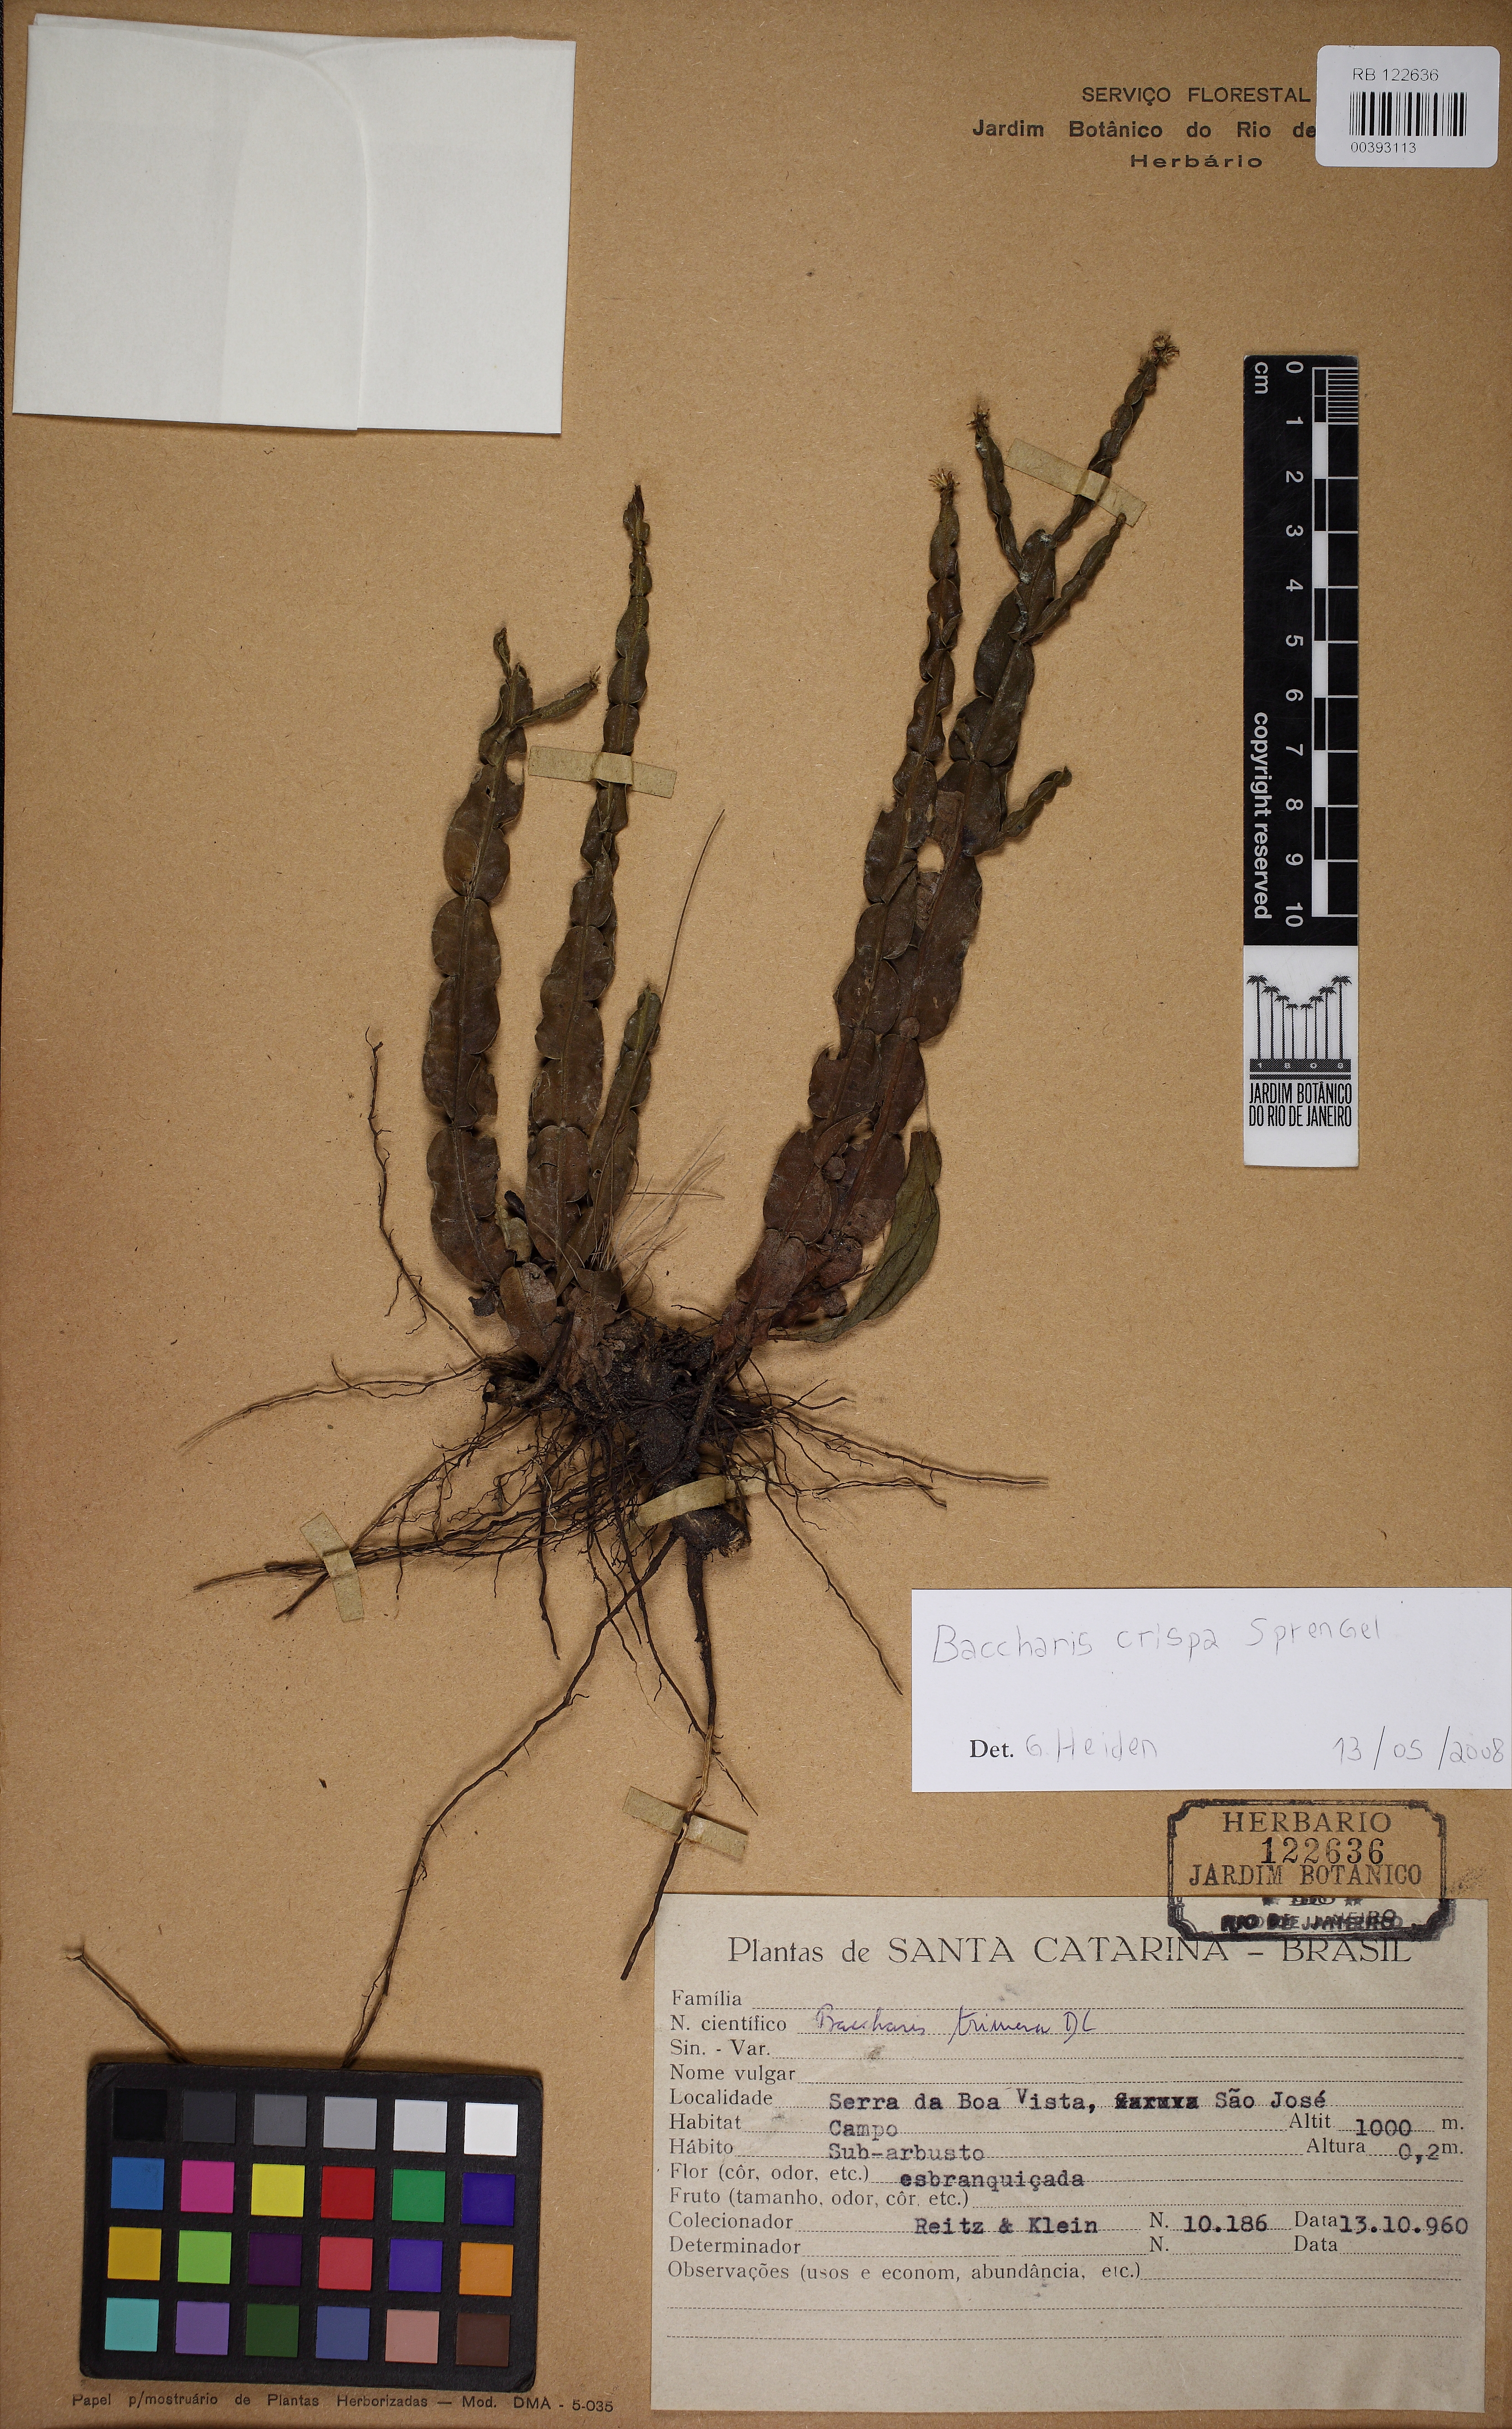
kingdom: Plantae
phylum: Tracheophyta
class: Magnoliopsida
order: Asterales
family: Asteraceae
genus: Baccharis
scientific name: Baccharis crispa
